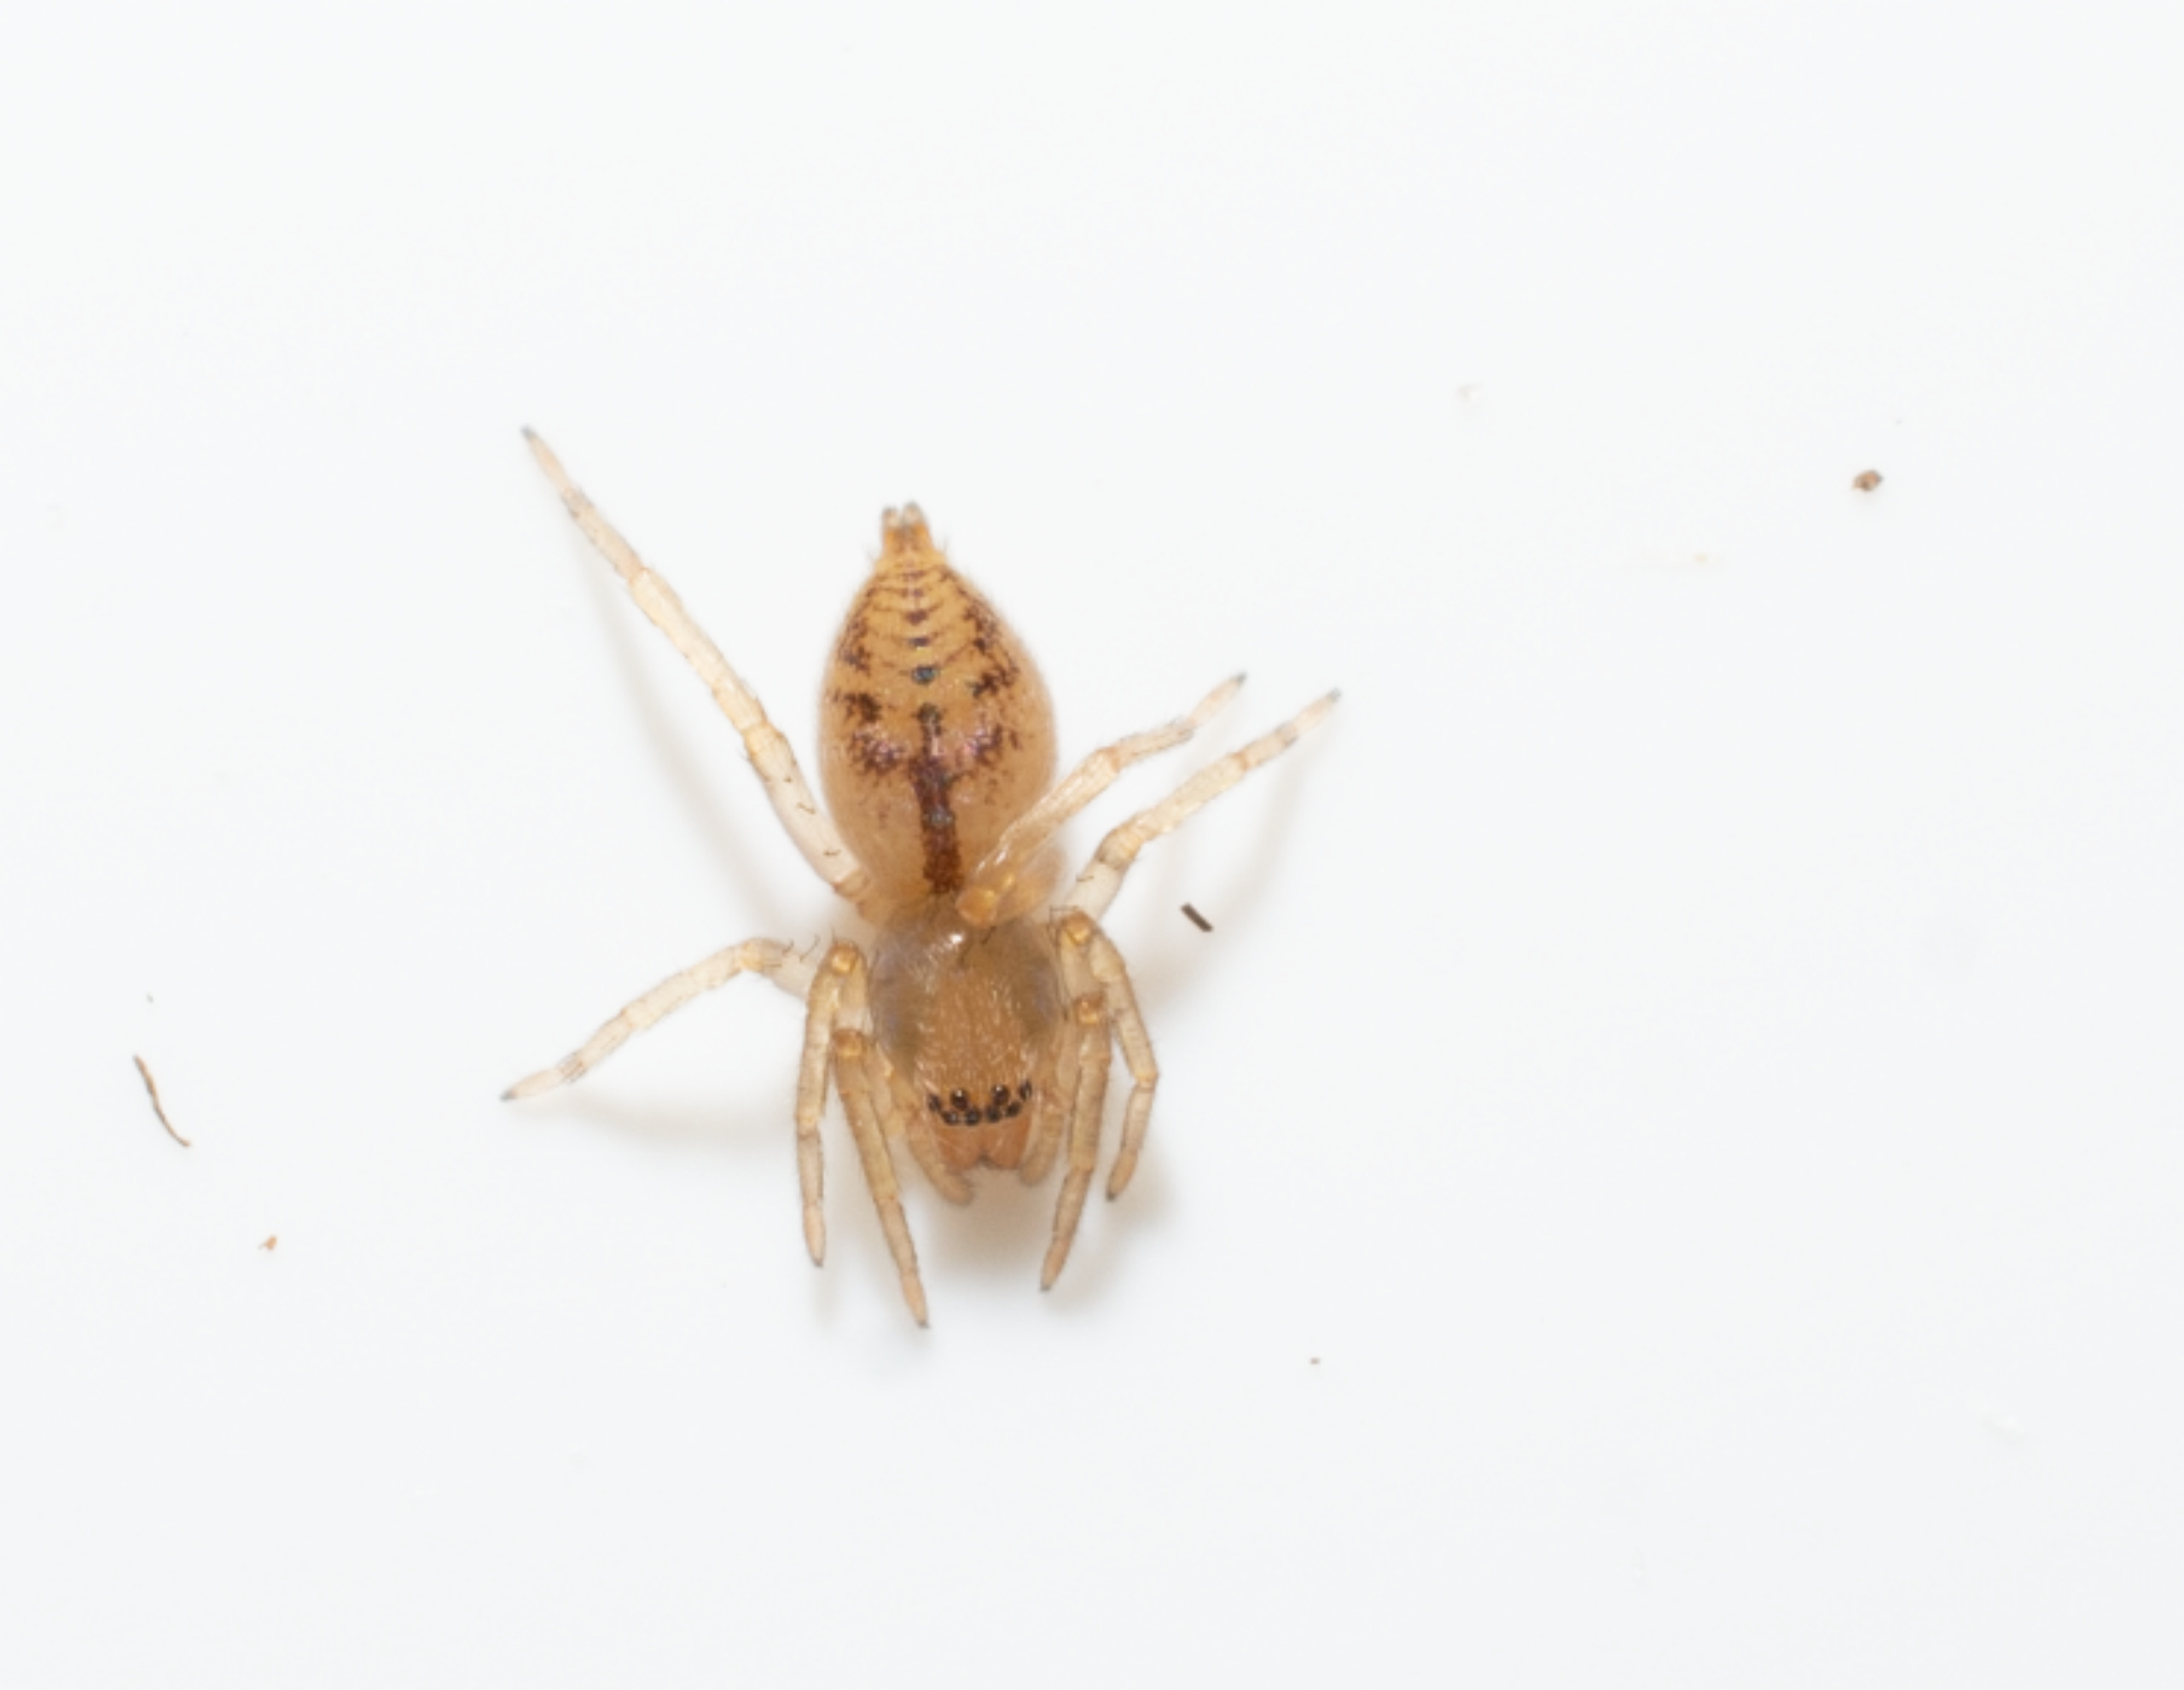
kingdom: Animalia
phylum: Arthropoda
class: Arachnida
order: Araneae
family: Clubionidae
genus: Clubiona
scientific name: Clubiona comta
